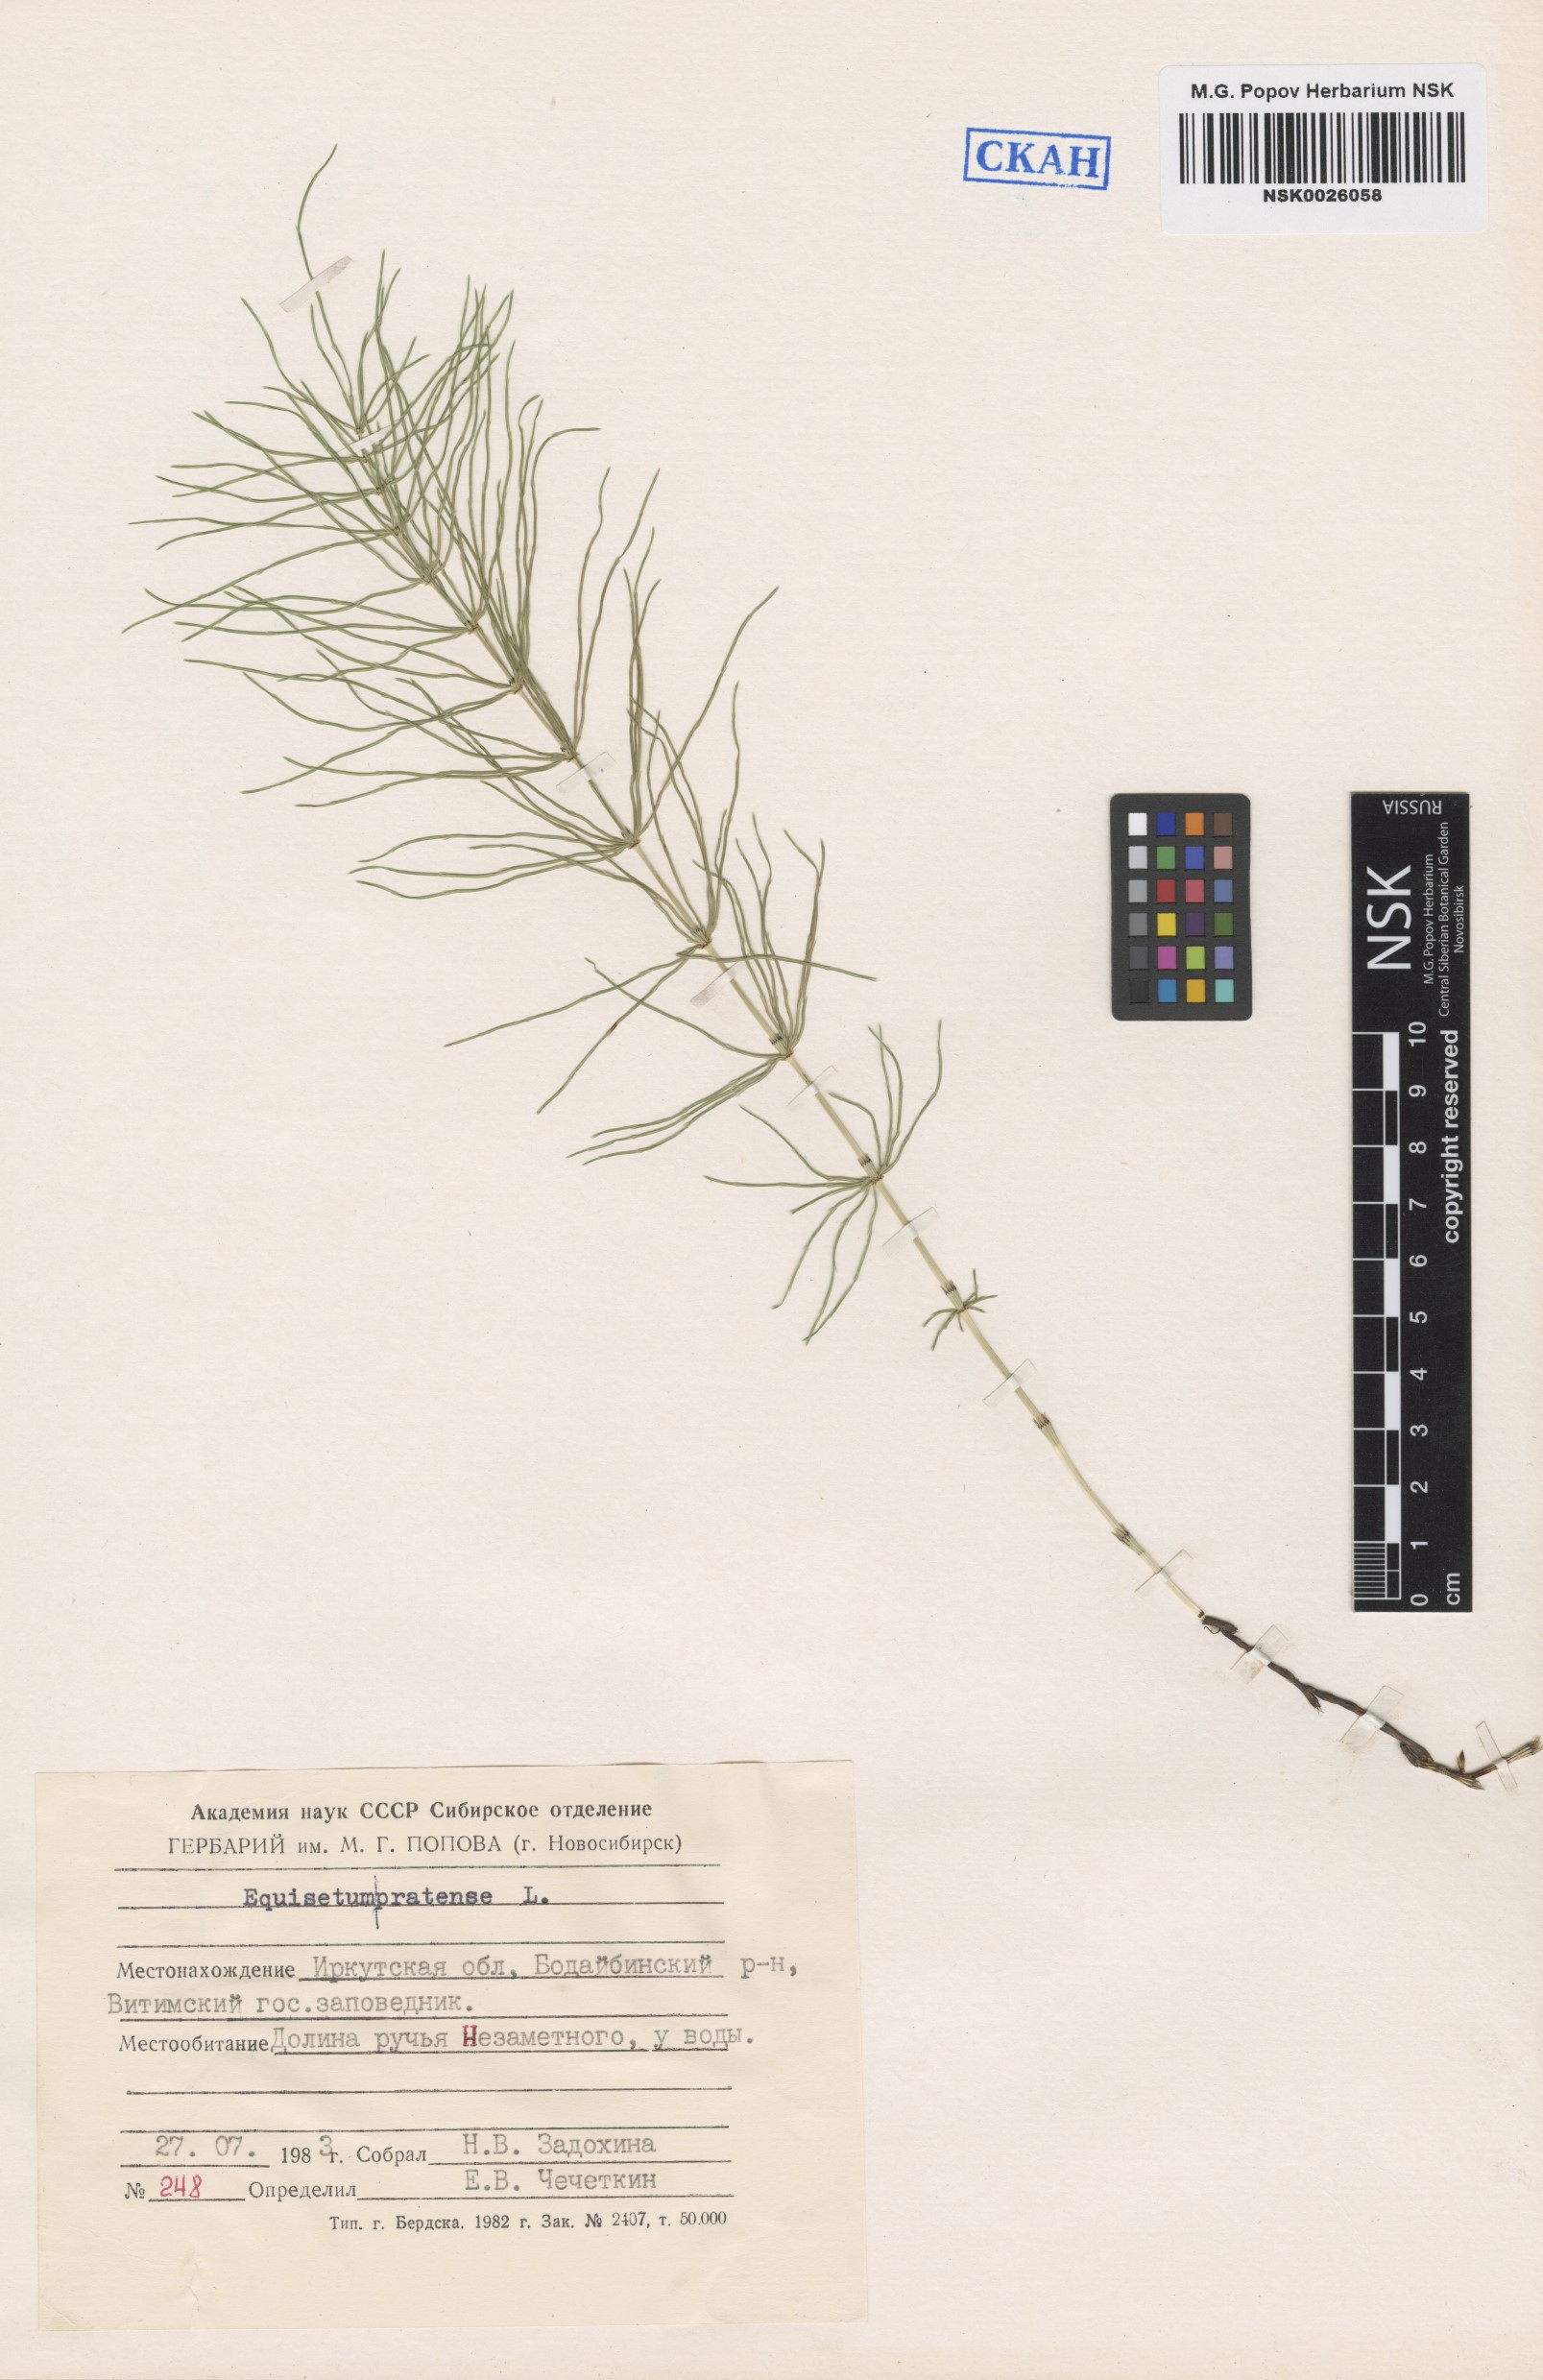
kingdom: Plantae
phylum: Tracheophyta
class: Polypodiopsida
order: Equisetales
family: Equisetaceae
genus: Equisetum
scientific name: Equisetum pratense
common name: Meadow horsetail
